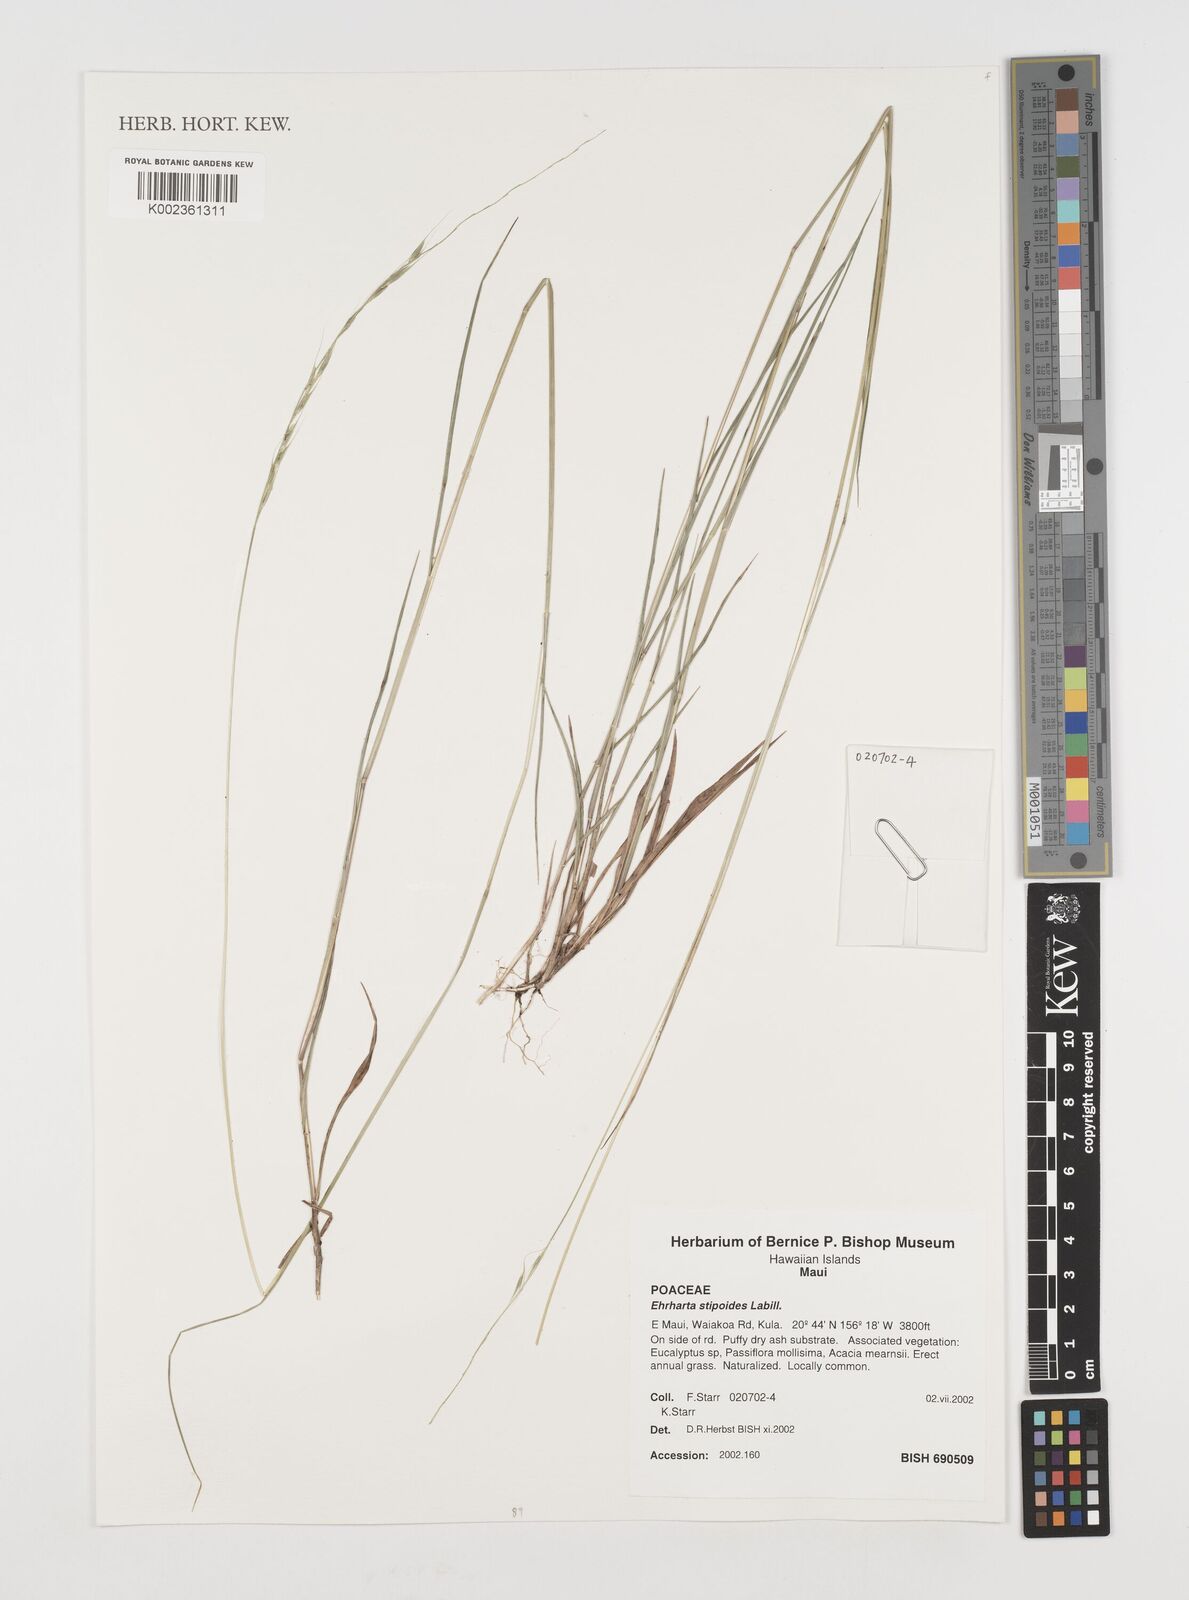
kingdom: Plantae
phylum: Tracheophyta
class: Liliopsida
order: Poales
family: Poaceae
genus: Microlaena
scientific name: Microlaena stipoides
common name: Meadow ricegrass
